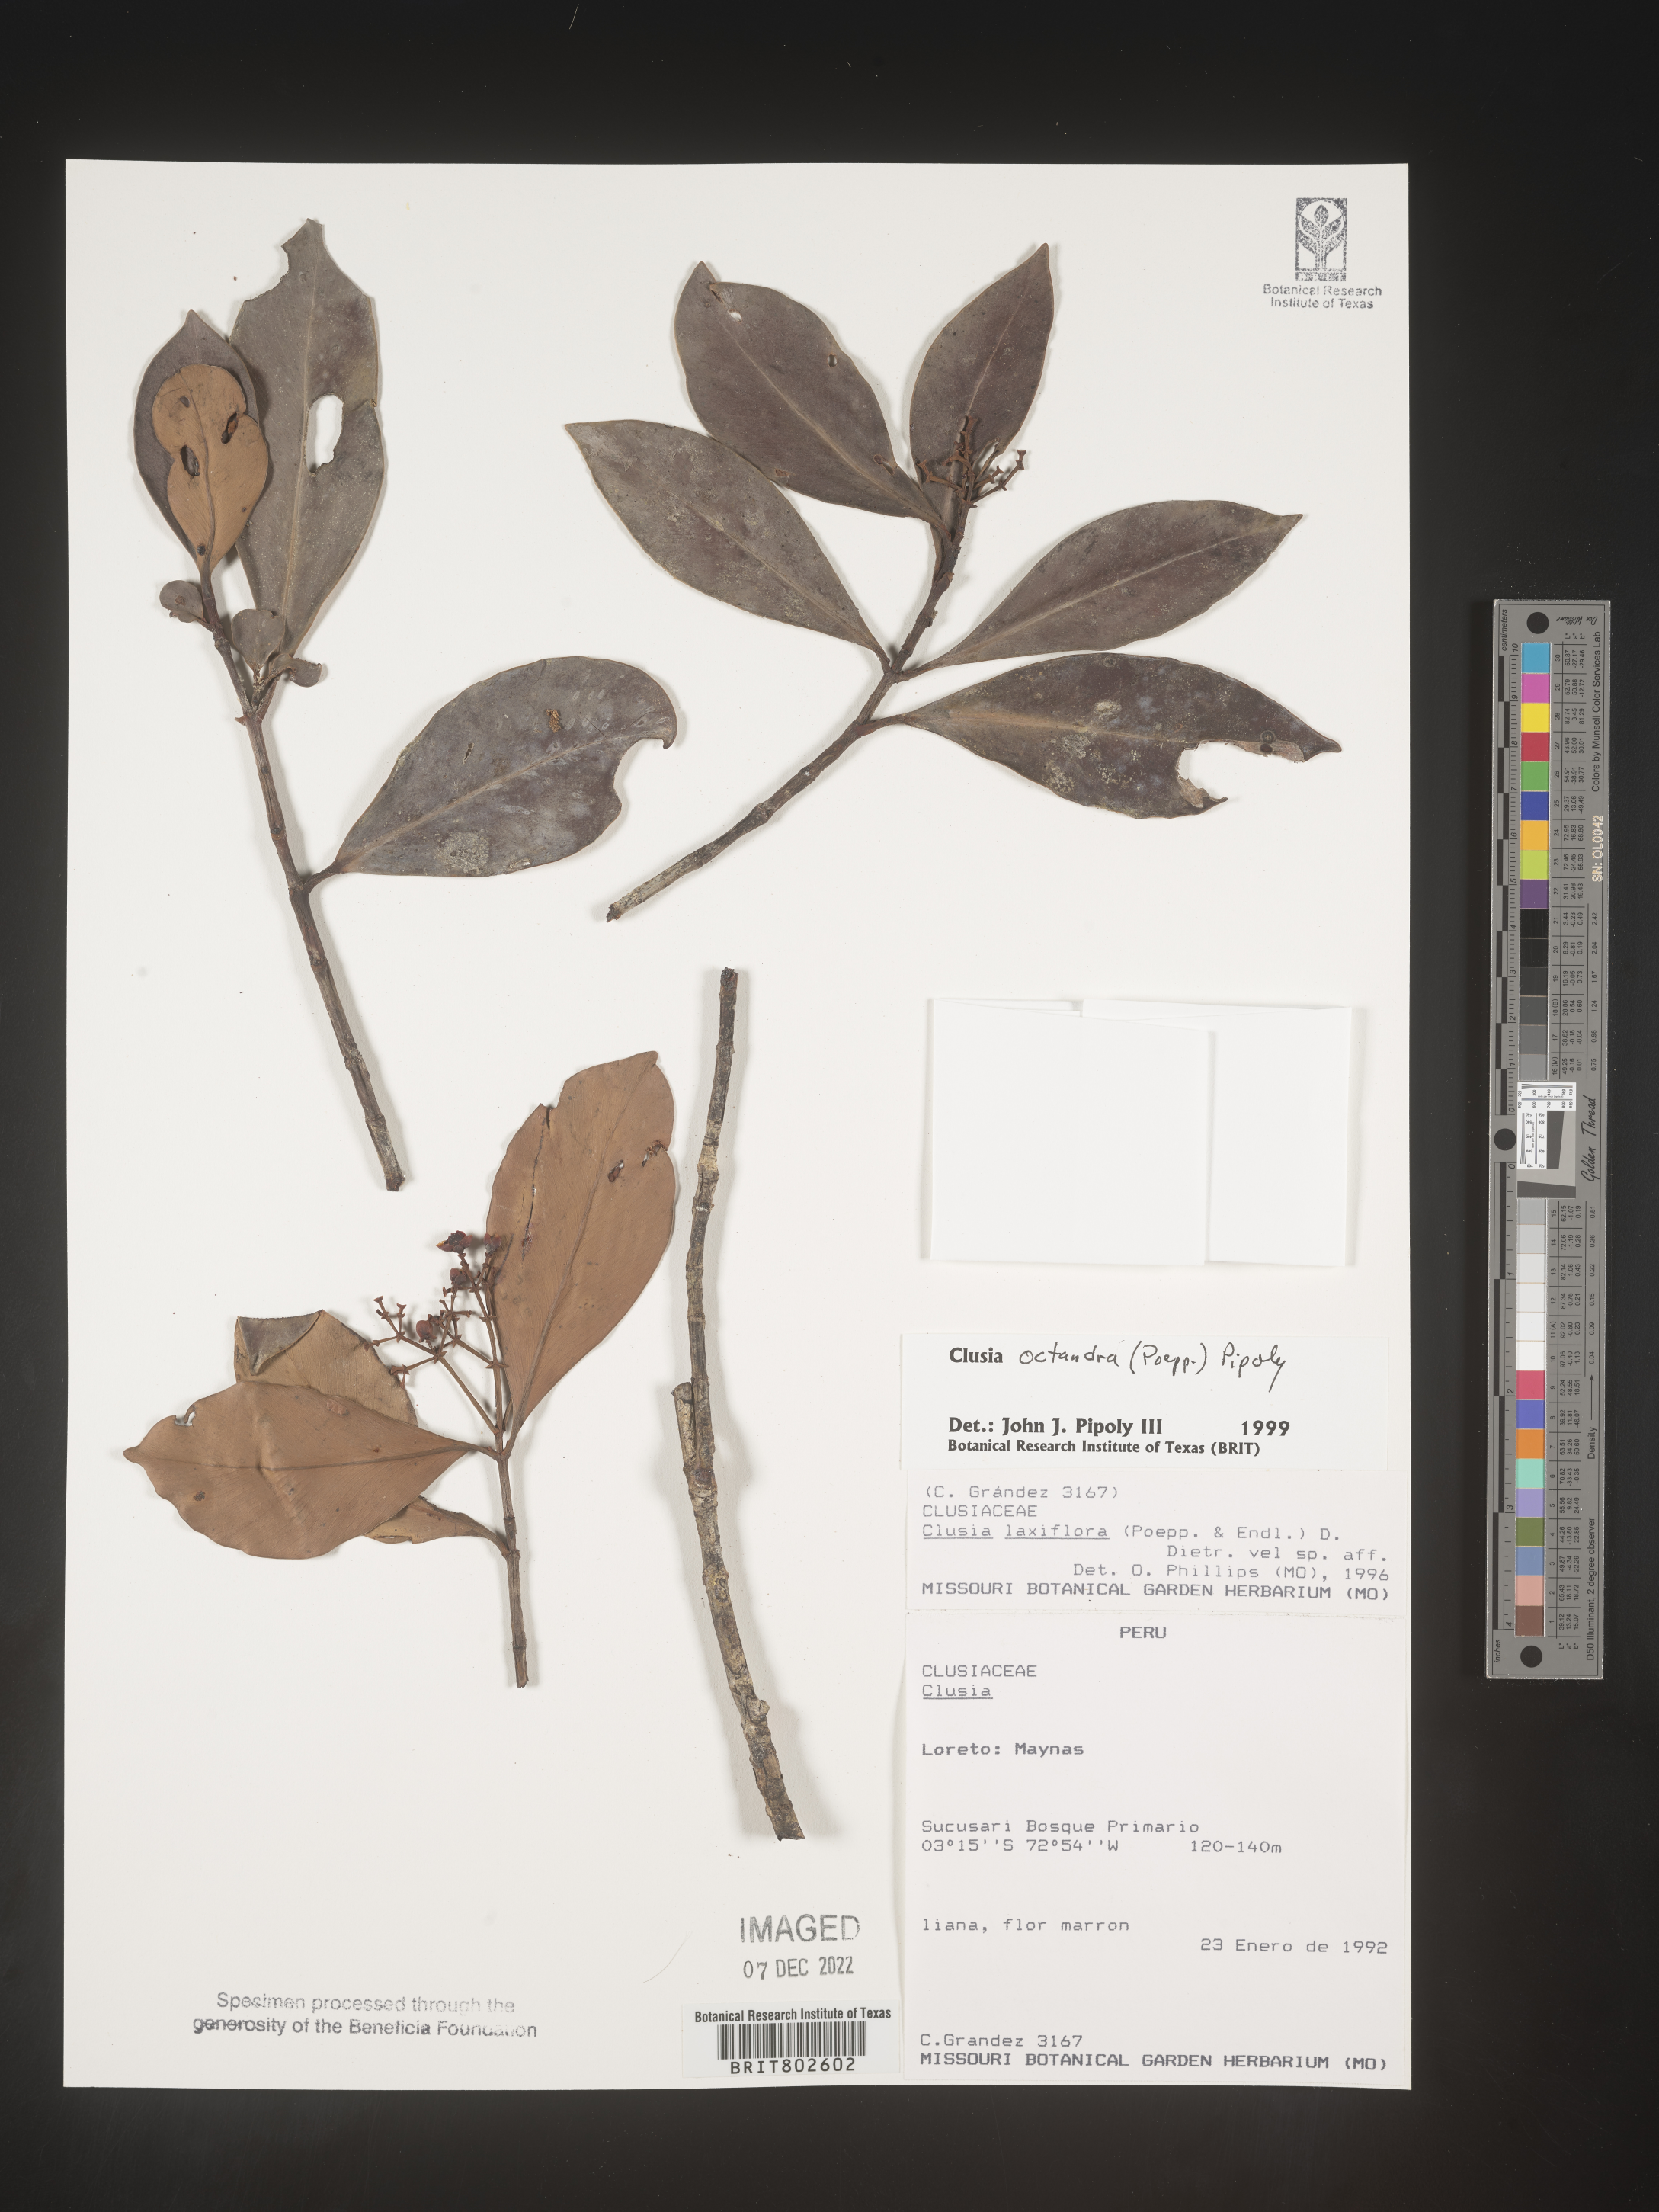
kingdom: Plantae
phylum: Tracheophyta
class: Magnoliopsida
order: Malpighiales
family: Clusiaceae
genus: Clusia
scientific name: Clusia
